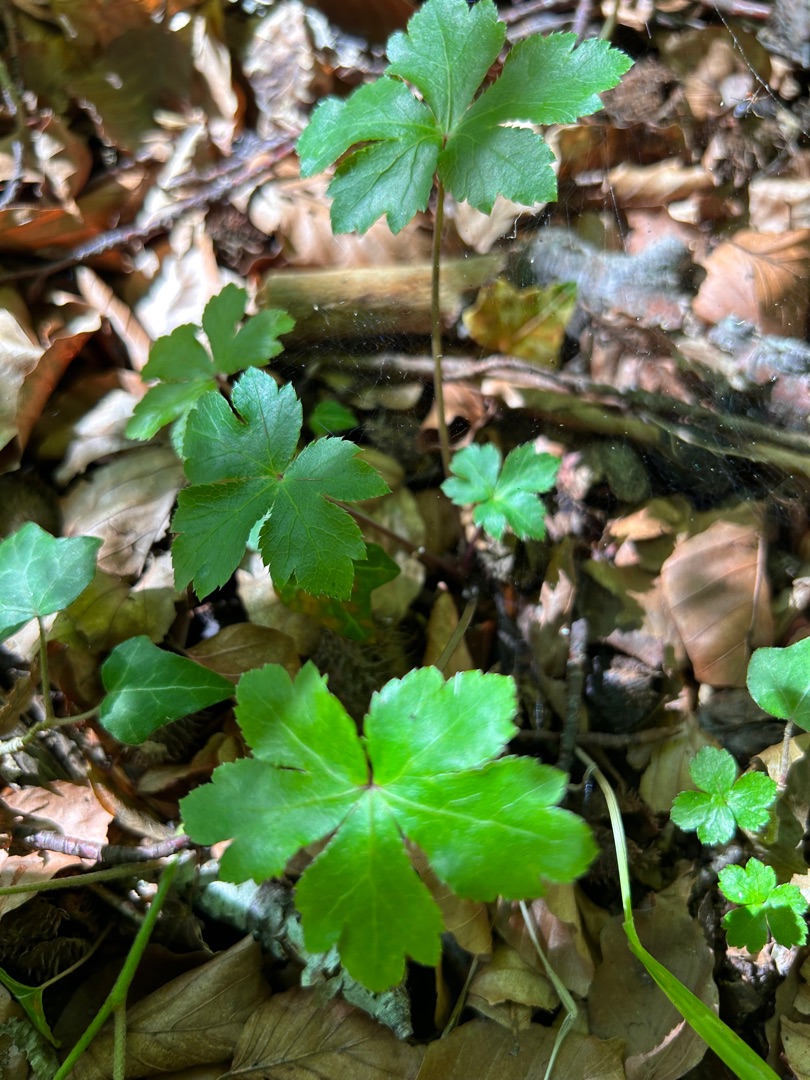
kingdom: Plantae
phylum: Tracheophyta
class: Magnoliopsida
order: Apiales
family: Apiaceae
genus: Sanicula
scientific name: Sanicula europaea
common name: Sanikel
